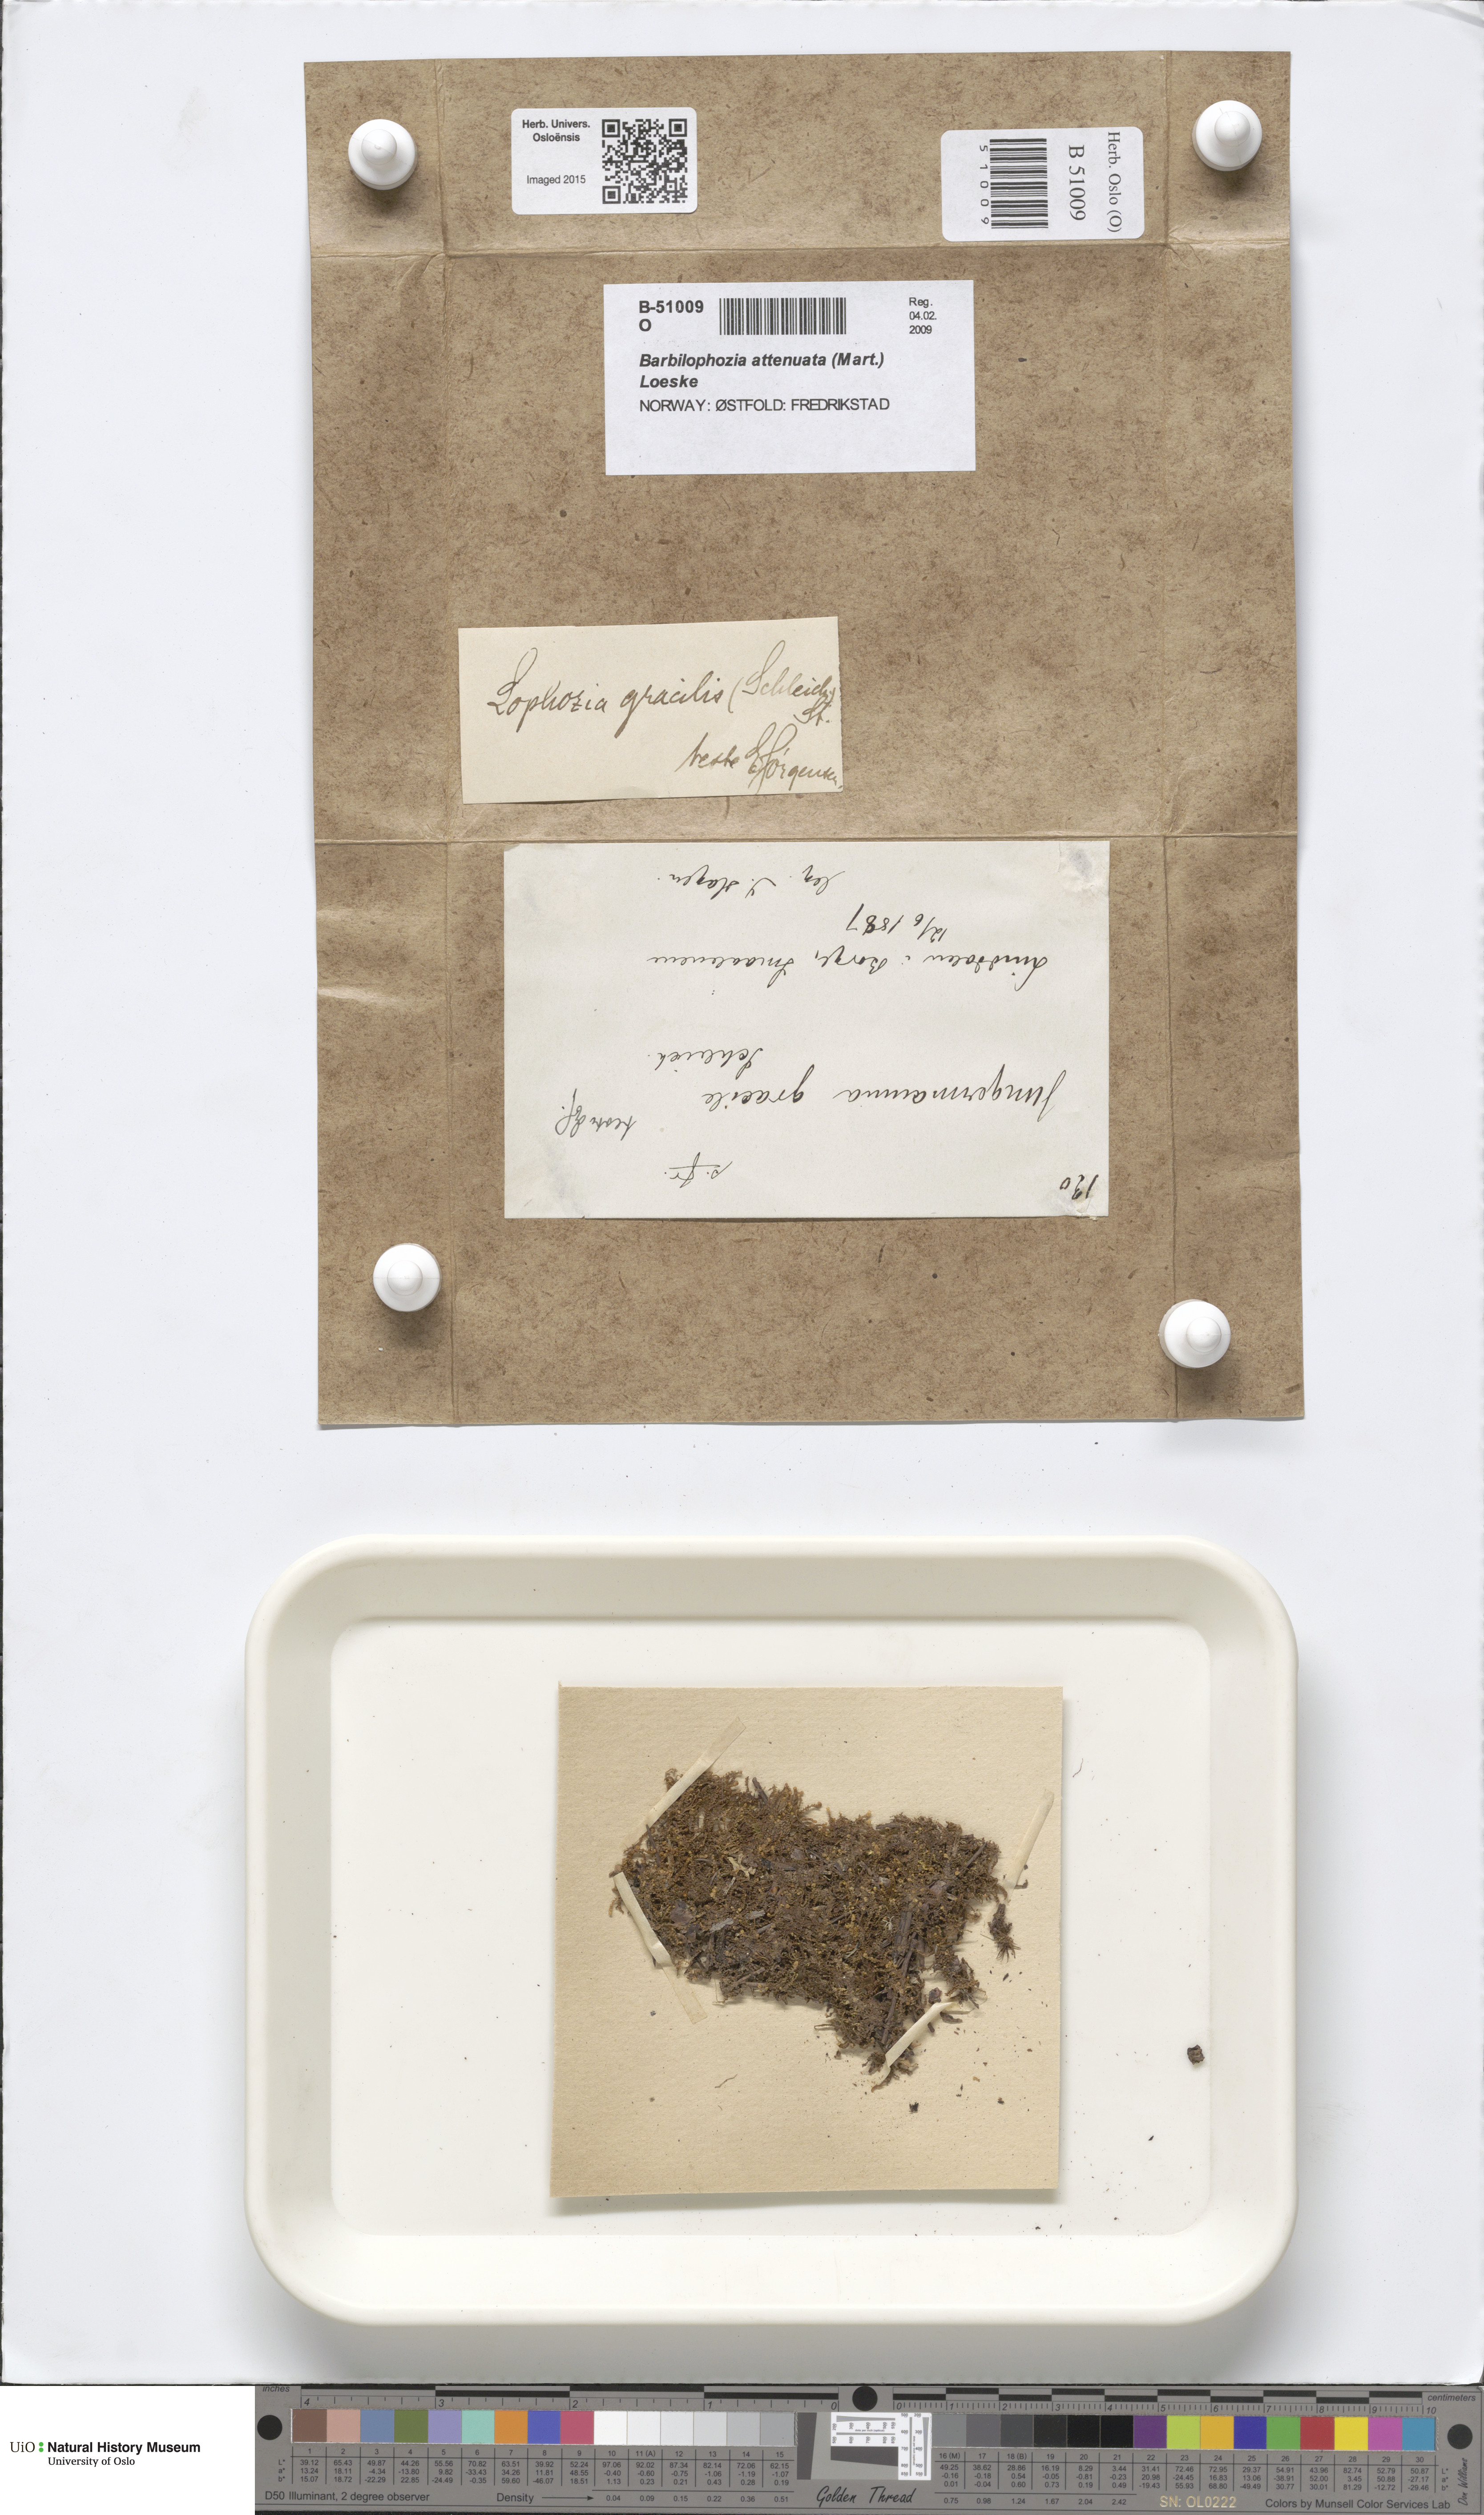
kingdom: Plantae
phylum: Marchantiophyta
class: Jungermanniopsida
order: Jungermanniales
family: Anastrophyllaceae
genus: Neoorthocaulis
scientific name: Neoorthocaulis attenuatus
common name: Trunk pawwort
